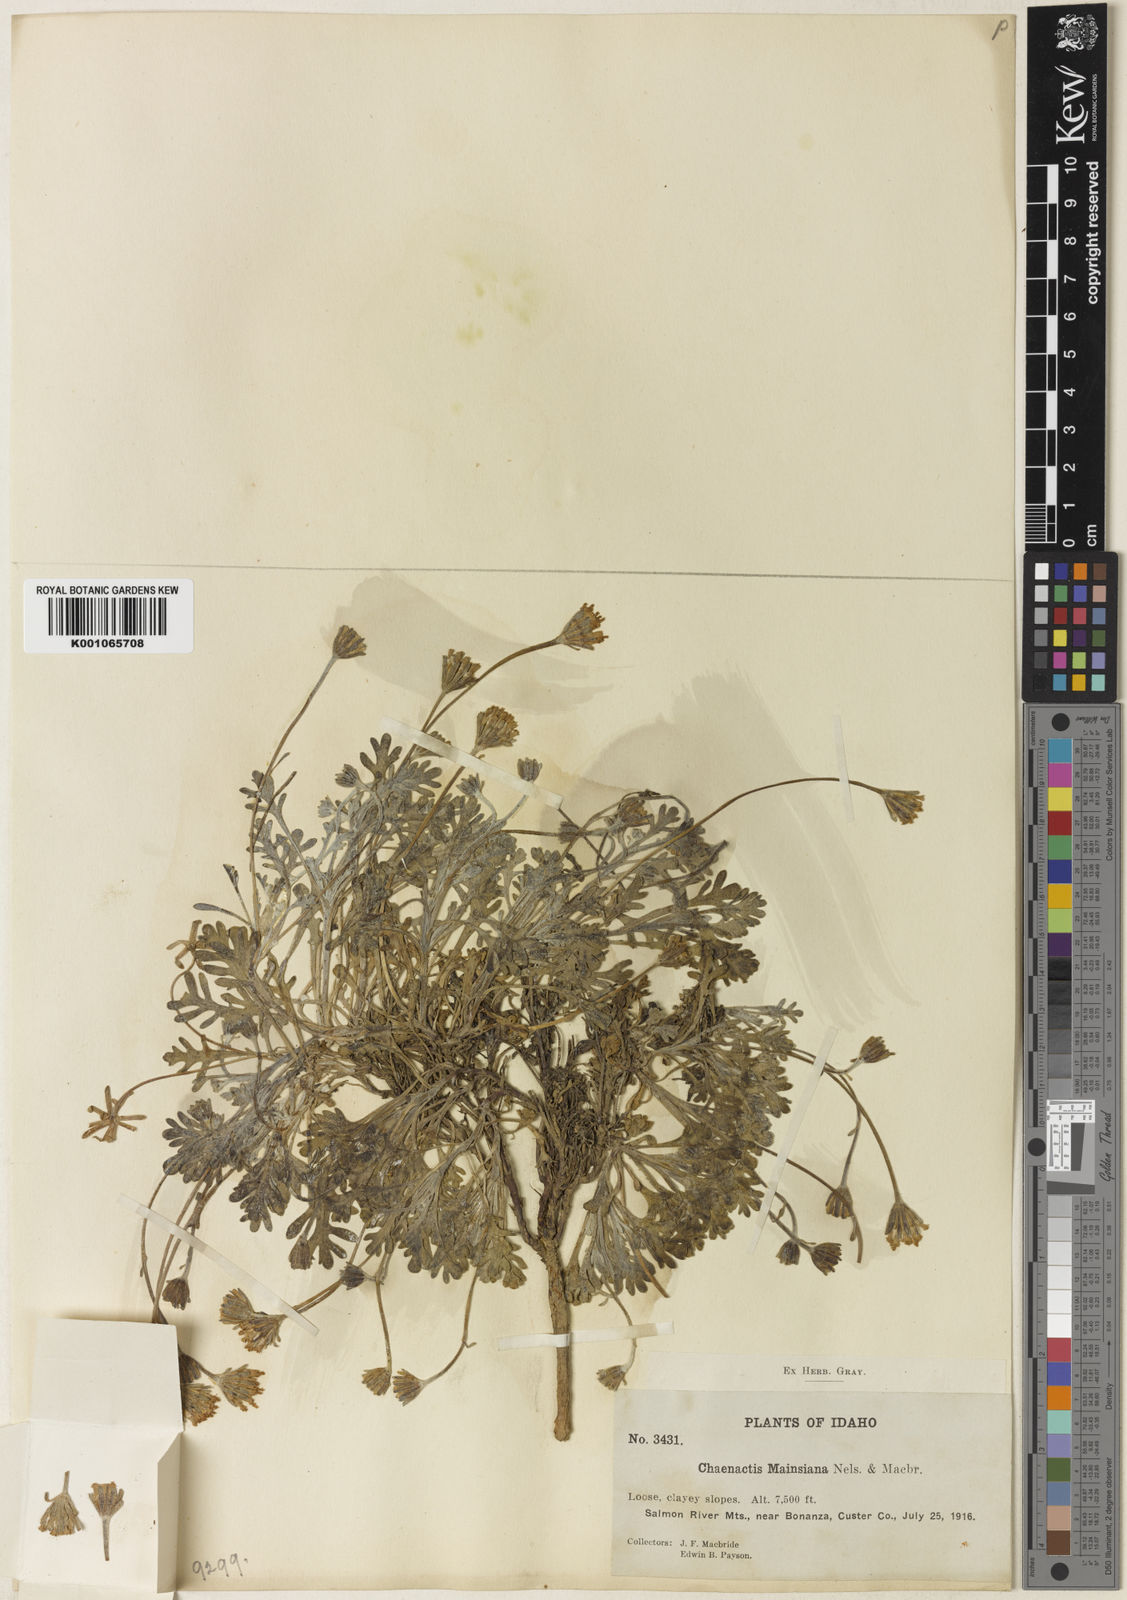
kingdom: Plantae
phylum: Tracheophyta
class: Magnoliopsida
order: Asterales
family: Asteraceae
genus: Chaenactis
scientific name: Chaenactis evermannii
